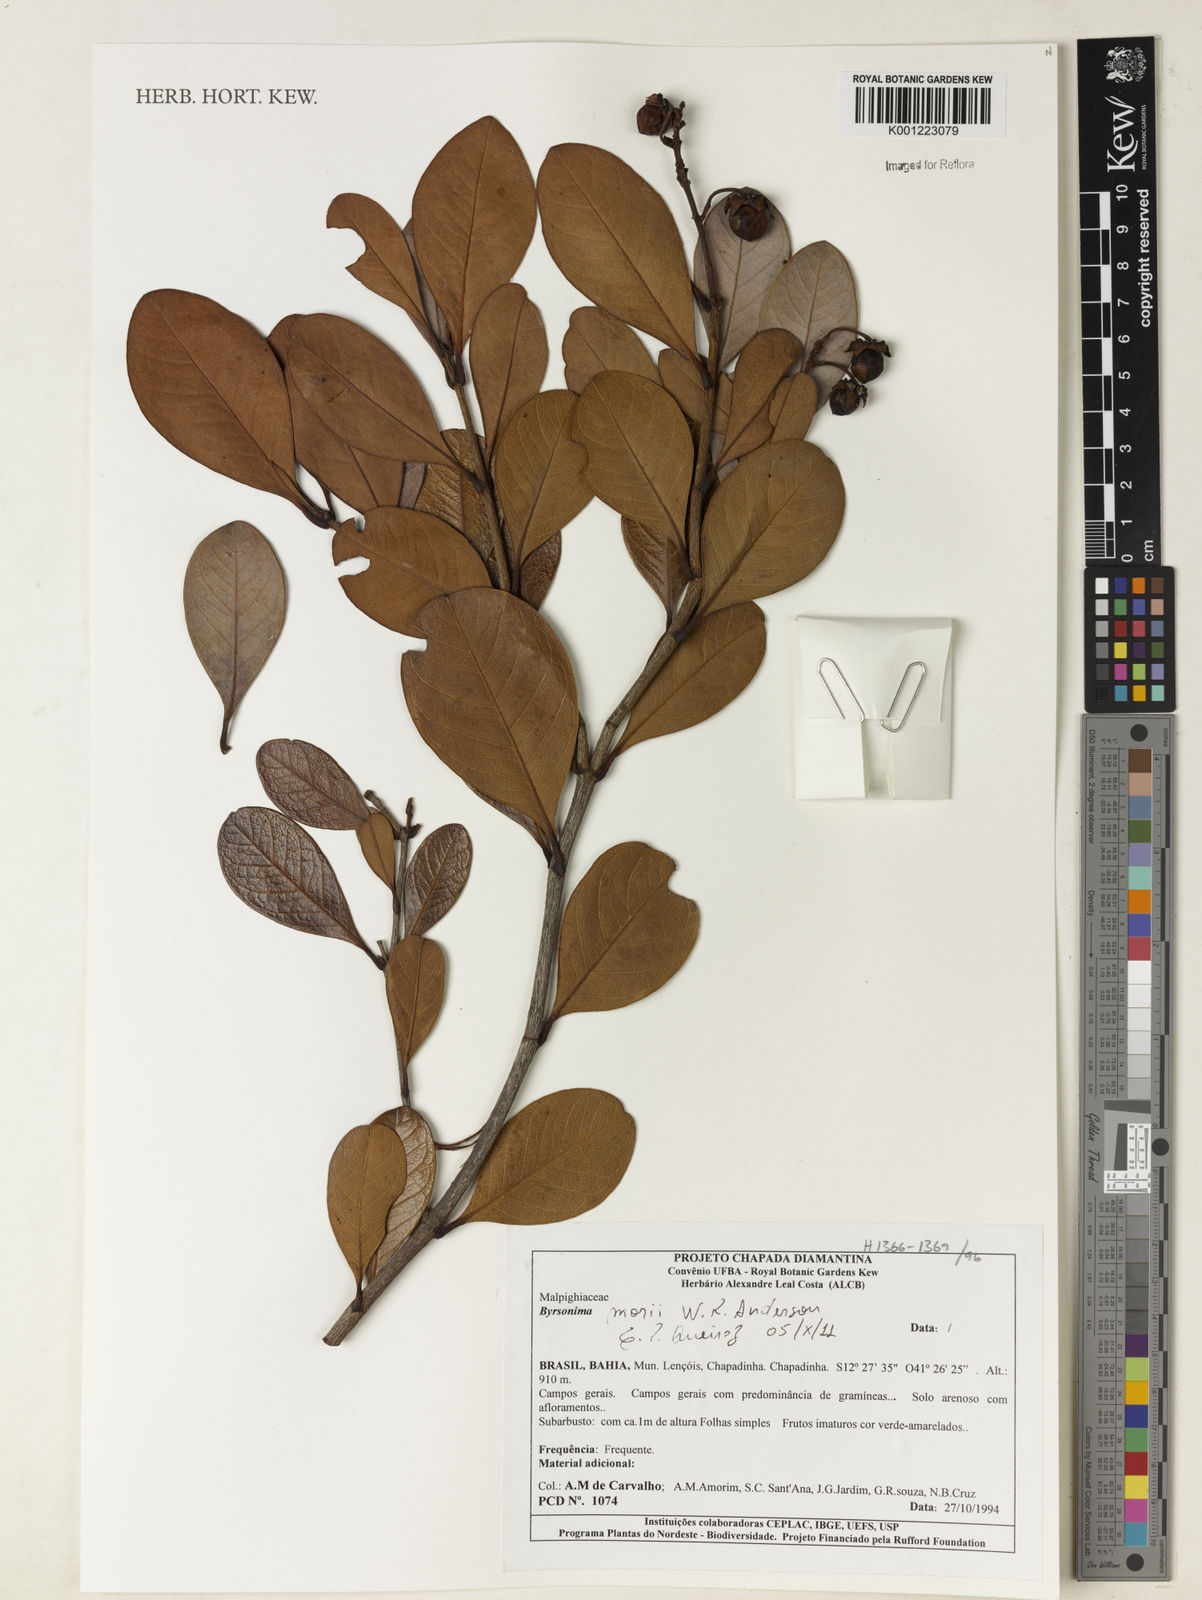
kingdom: Plantae
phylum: Tracheophyta
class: Magnoliopsida
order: Malpighiales
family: Malpighiaceae
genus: Byrsonima
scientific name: Byrsonima morii
